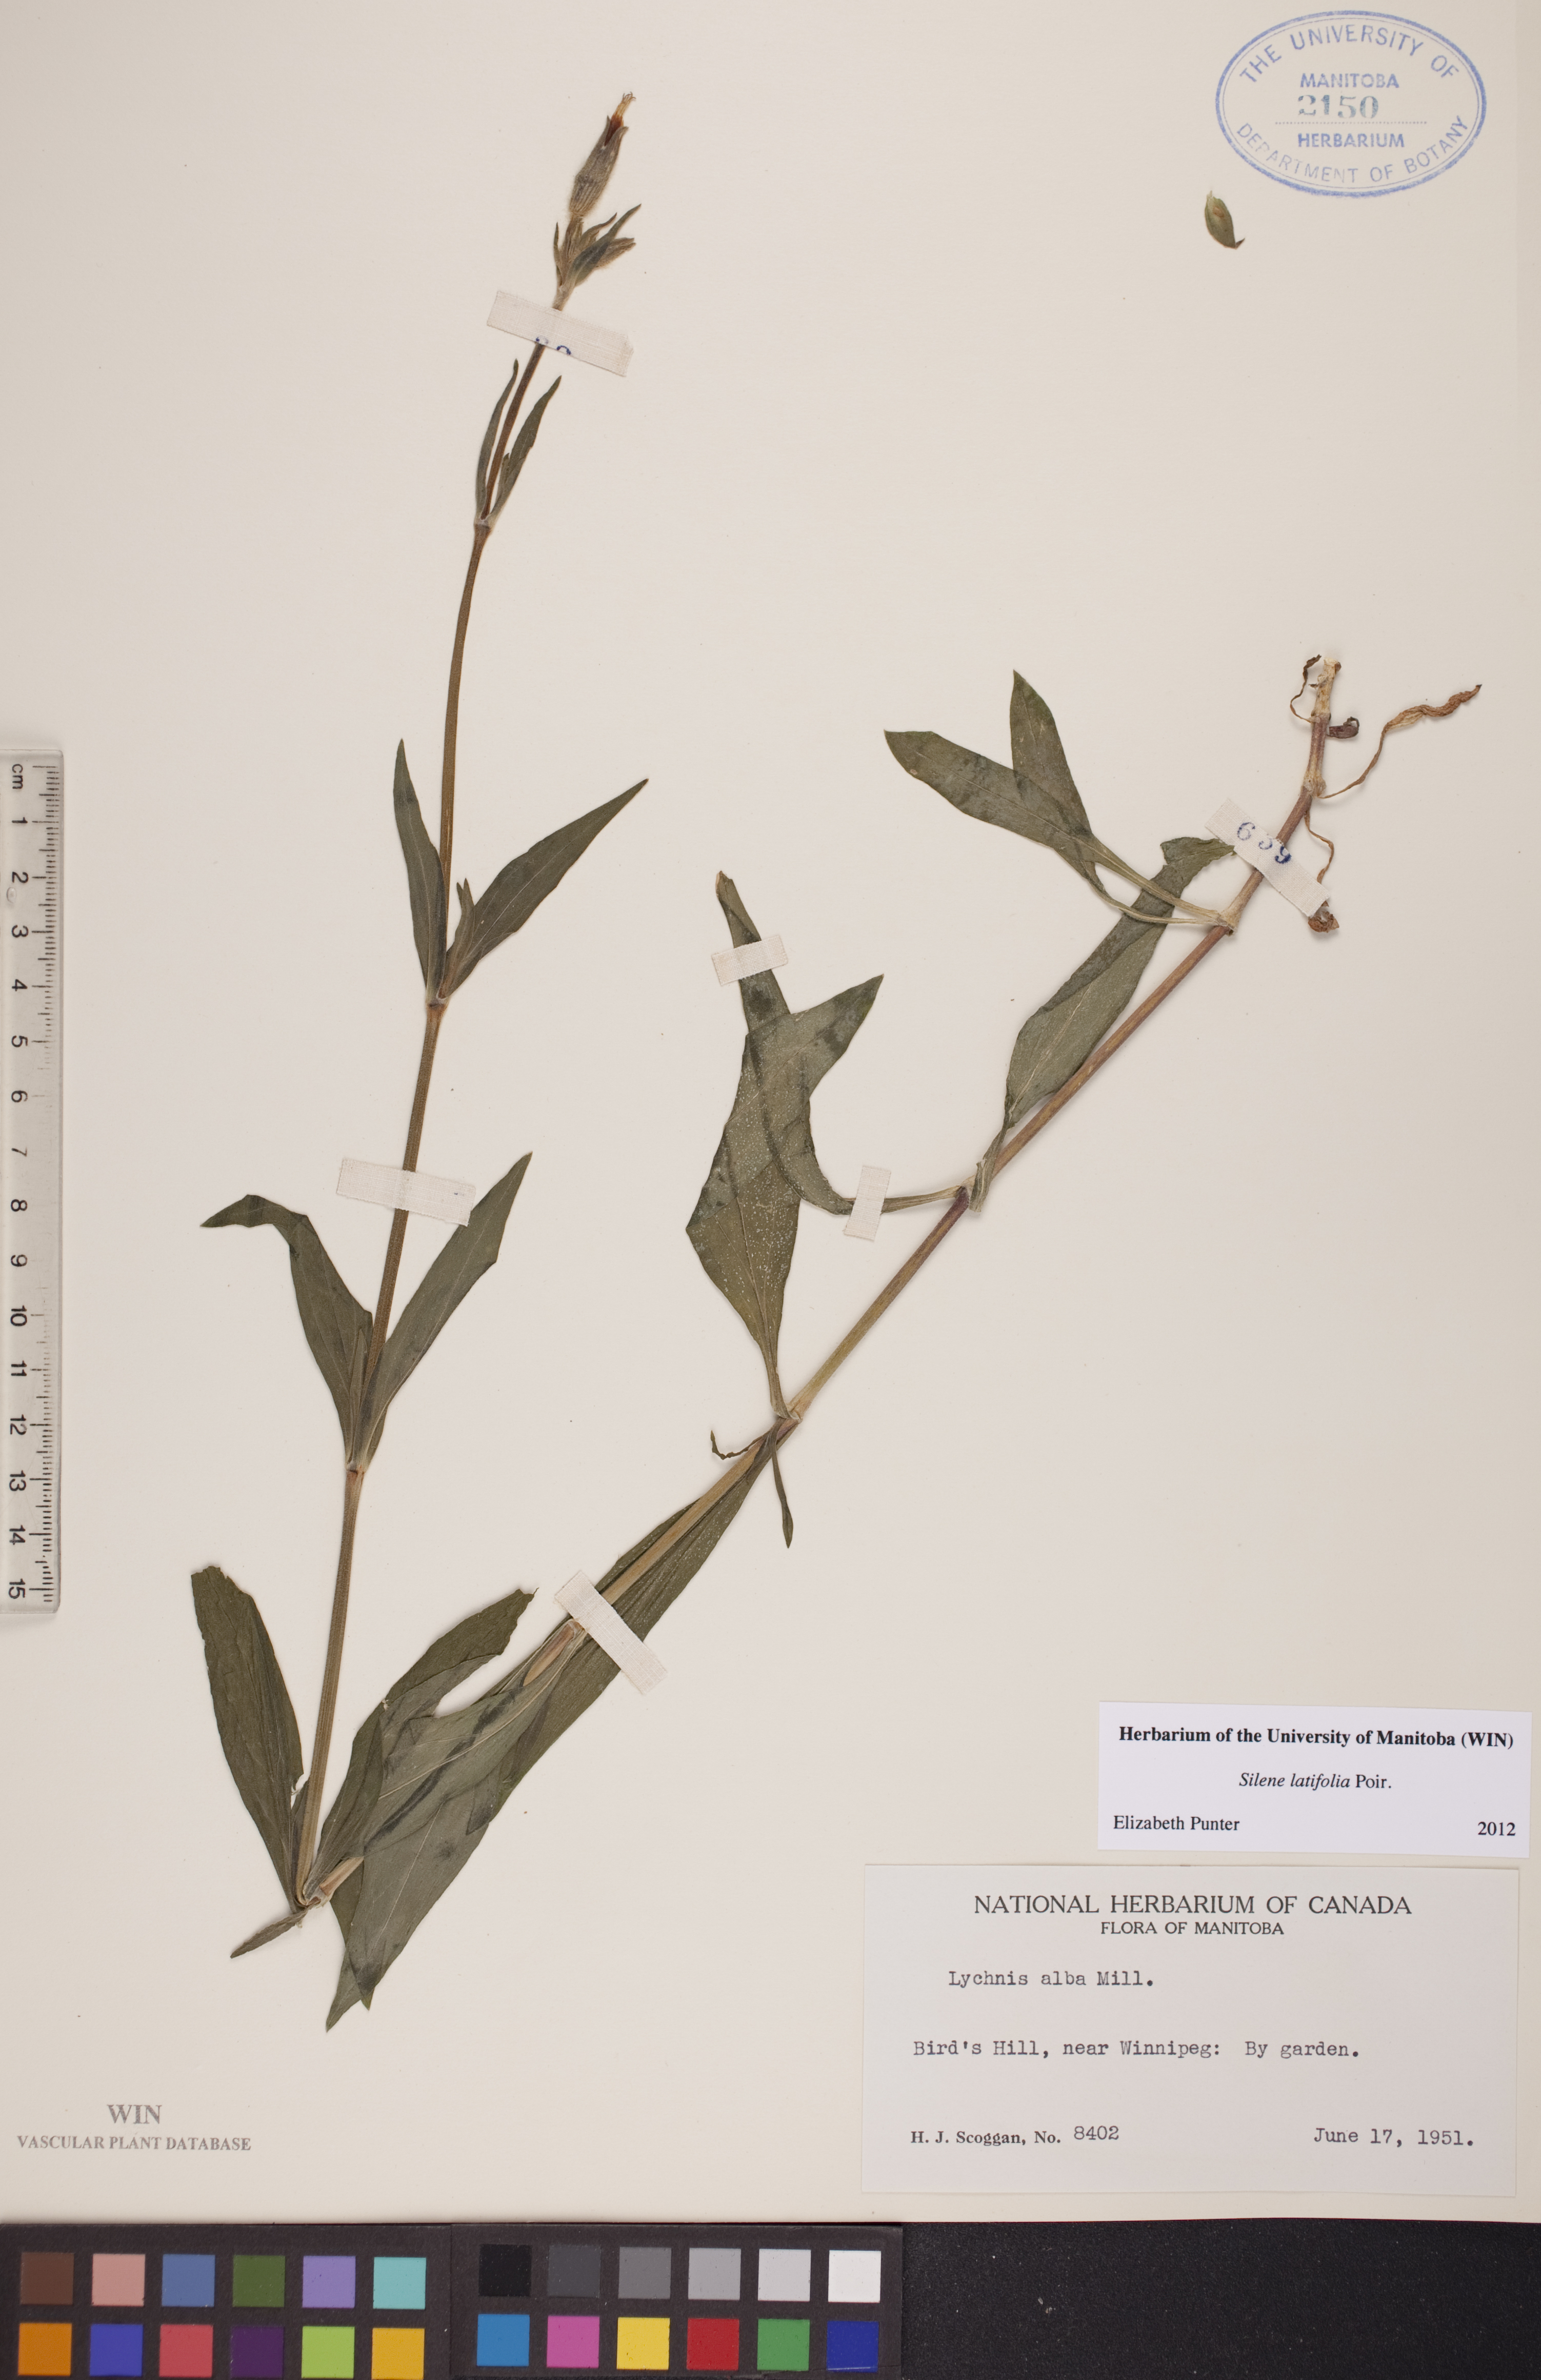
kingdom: Plantae
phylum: Tracheophyta
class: Magnoliopsida
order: Caryophyllales
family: Caryophyllaceae
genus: Silene
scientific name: Silene latifolia
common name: White campion
